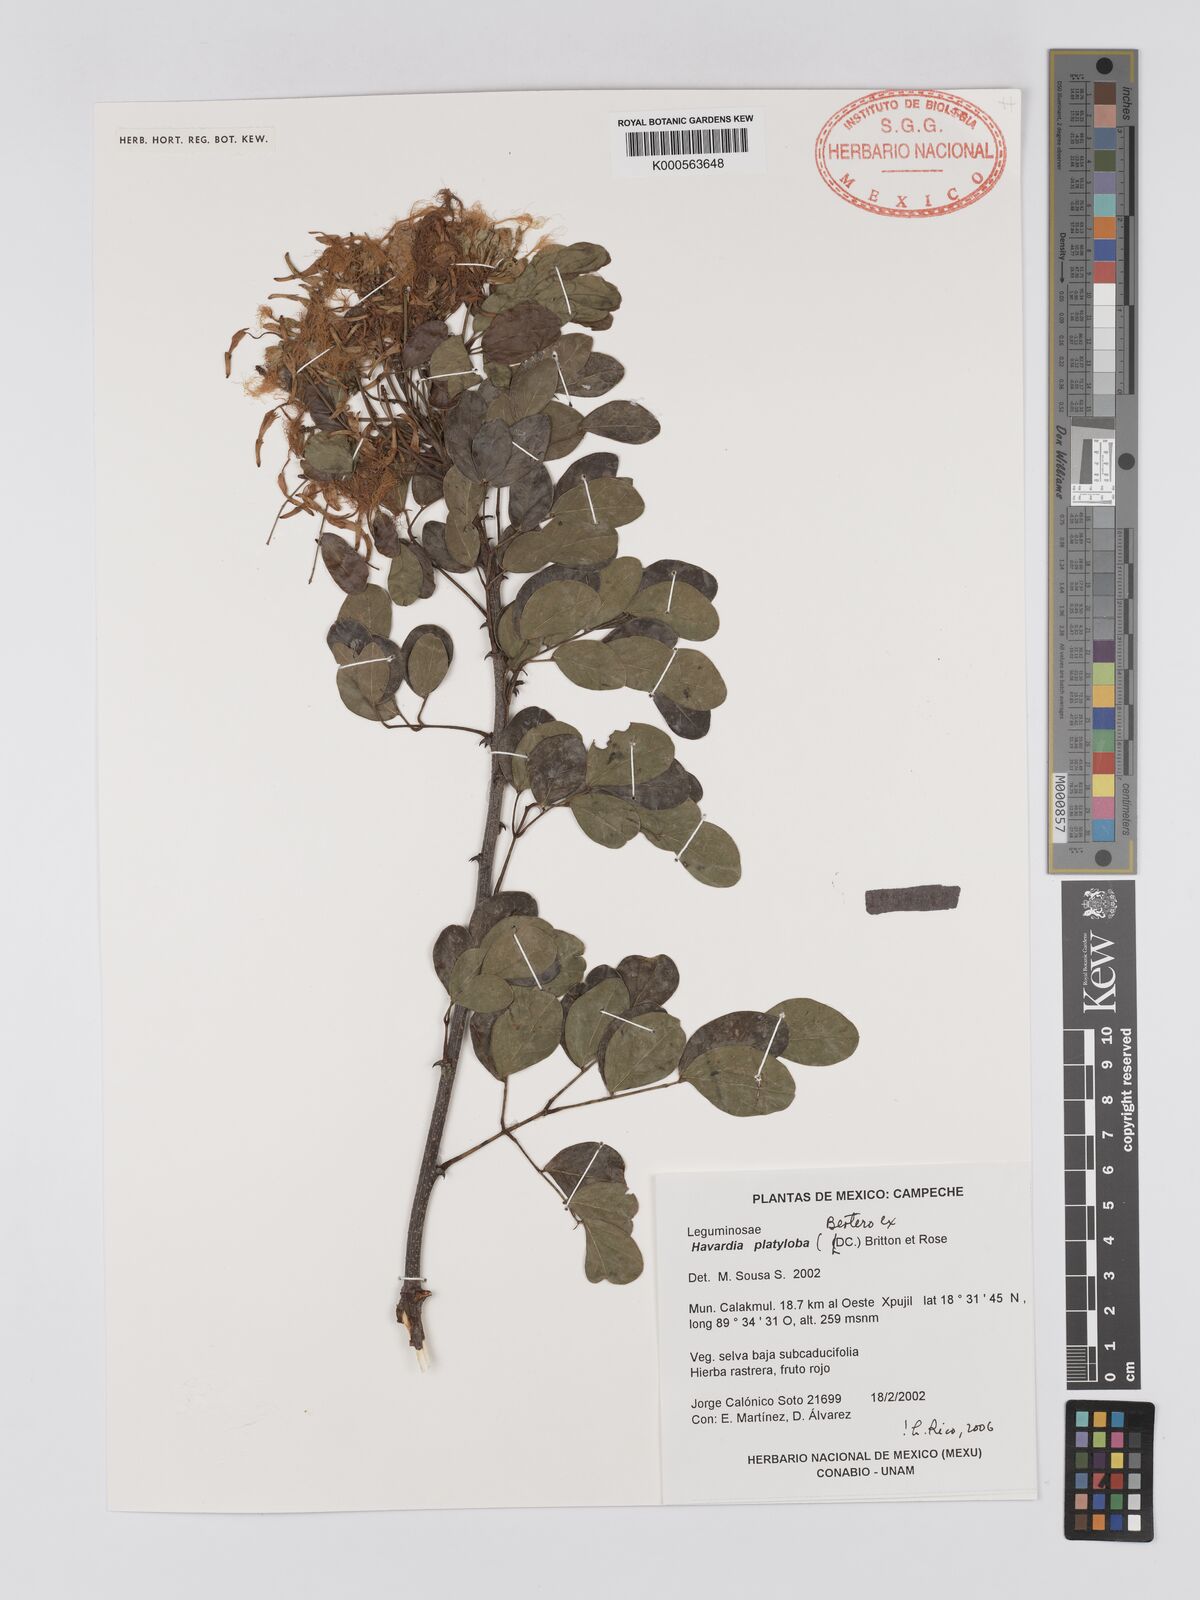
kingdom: Plantae
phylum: Tracheophyta
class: Magnoliopsida
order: Fabales
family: Fabaceae
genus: Havardia
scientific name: Havardia platyloba
